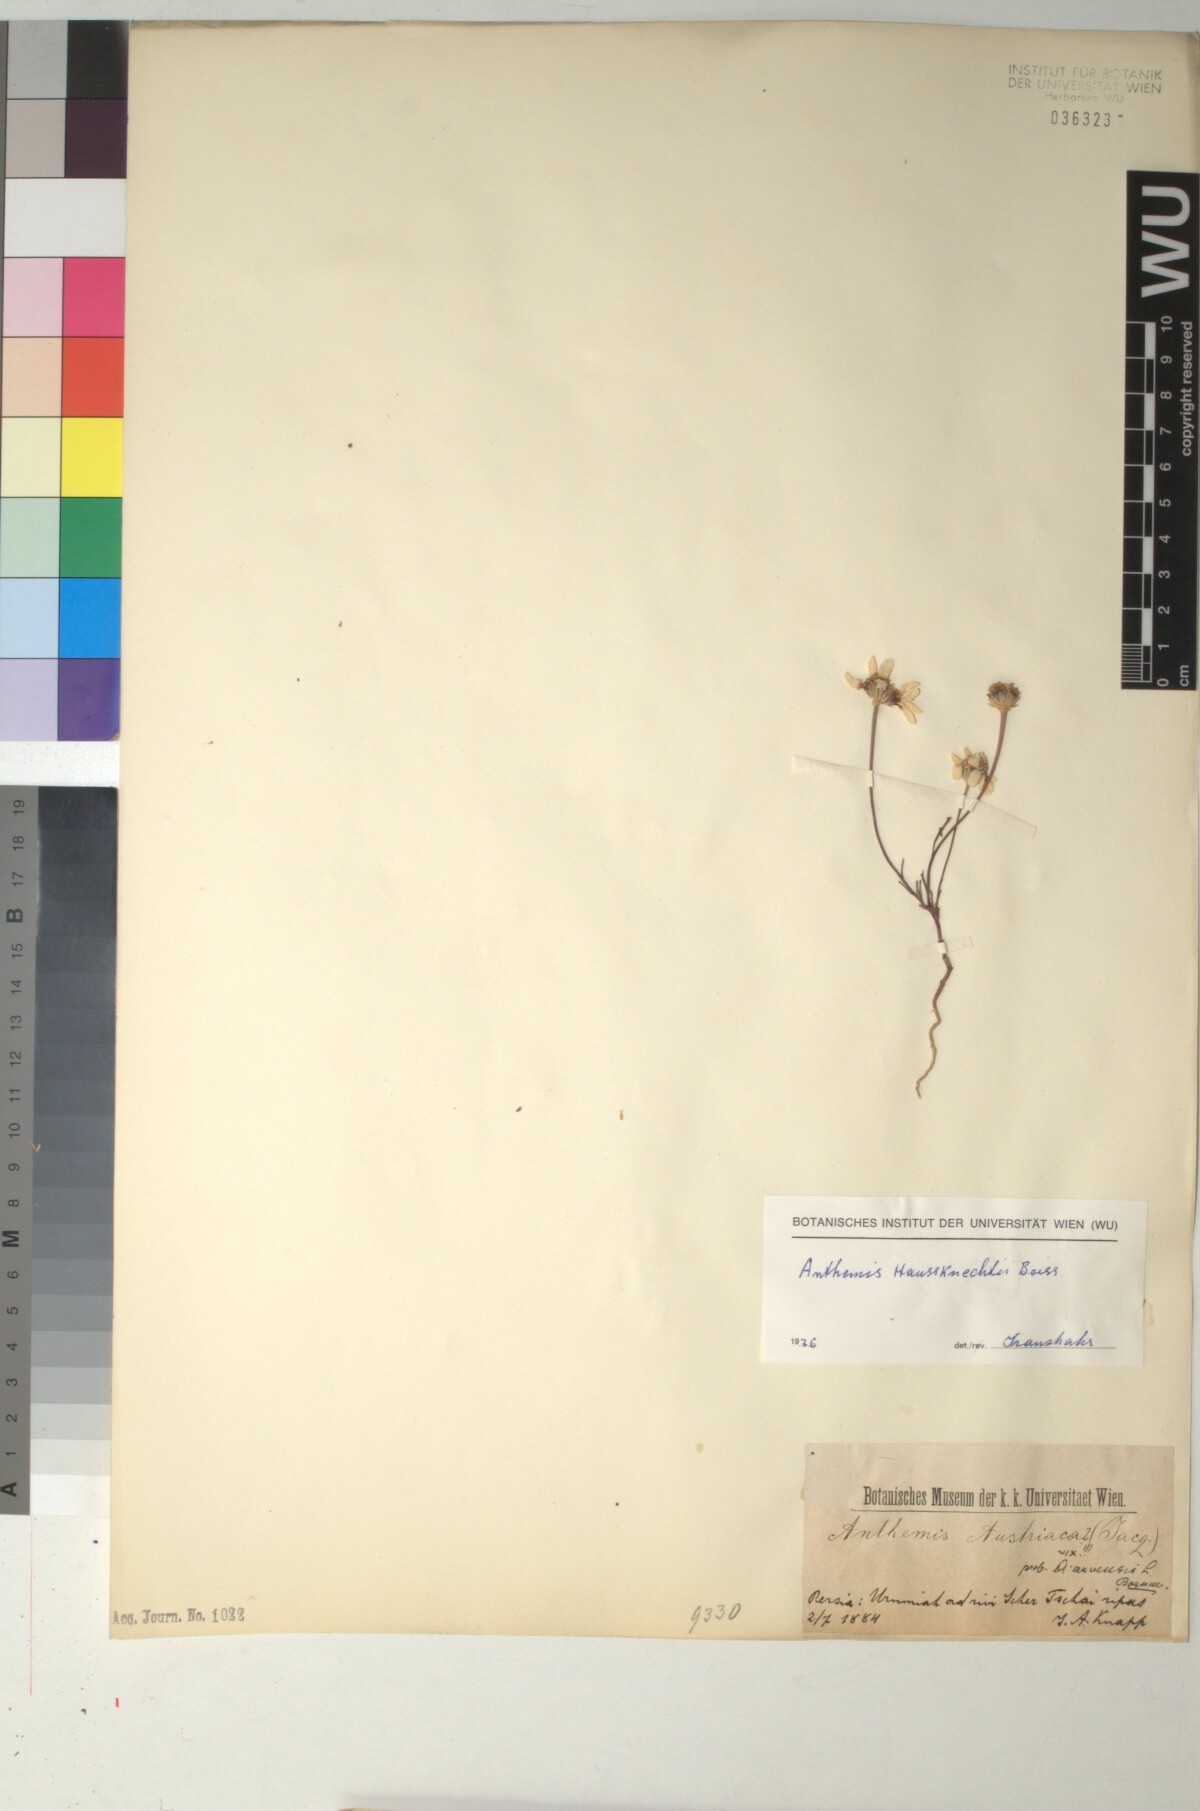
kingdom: Plantae
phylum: Tracheophyta
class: Magnoliopsida
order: Asterales
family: Asteraceae
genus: Anthemis
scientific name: Anthemis haussknechtii
